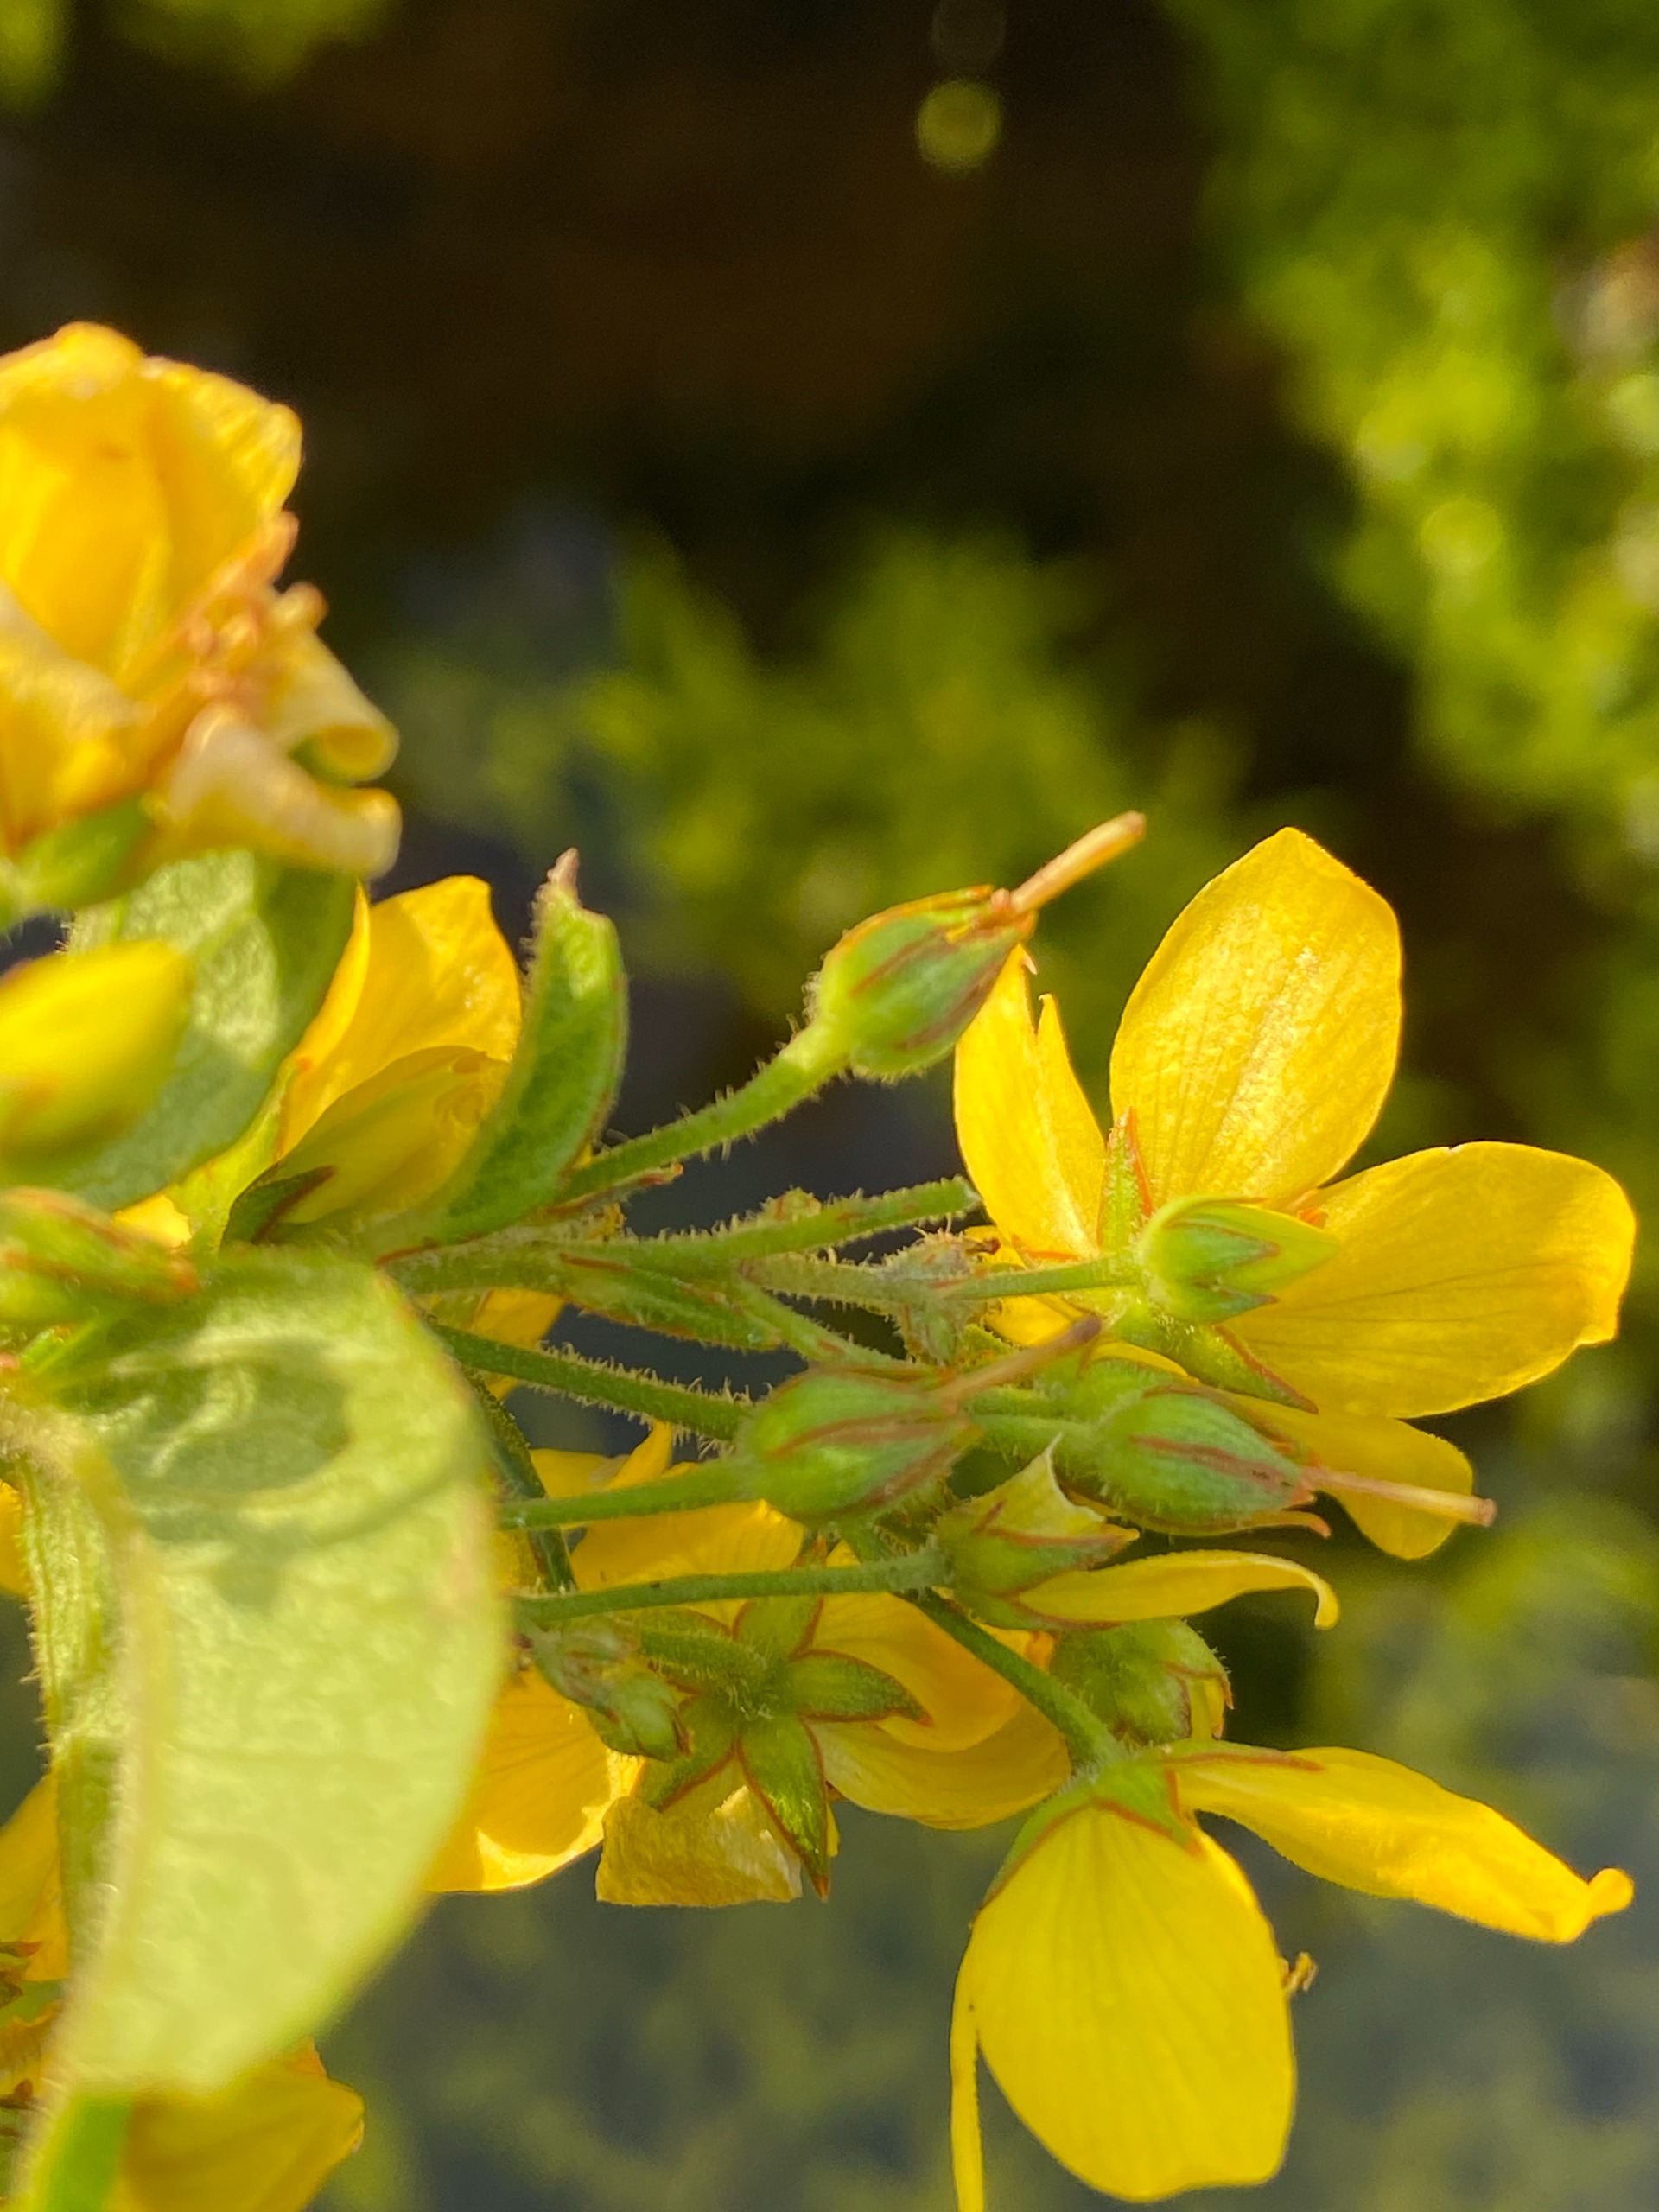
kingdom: Plantae
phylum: Tracheophyta
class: Magnoliopsida
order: Ericales
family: Primulaceae
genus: Lysimachia
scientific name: Lysimachia vulgaris
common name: Almindelig fredløs
